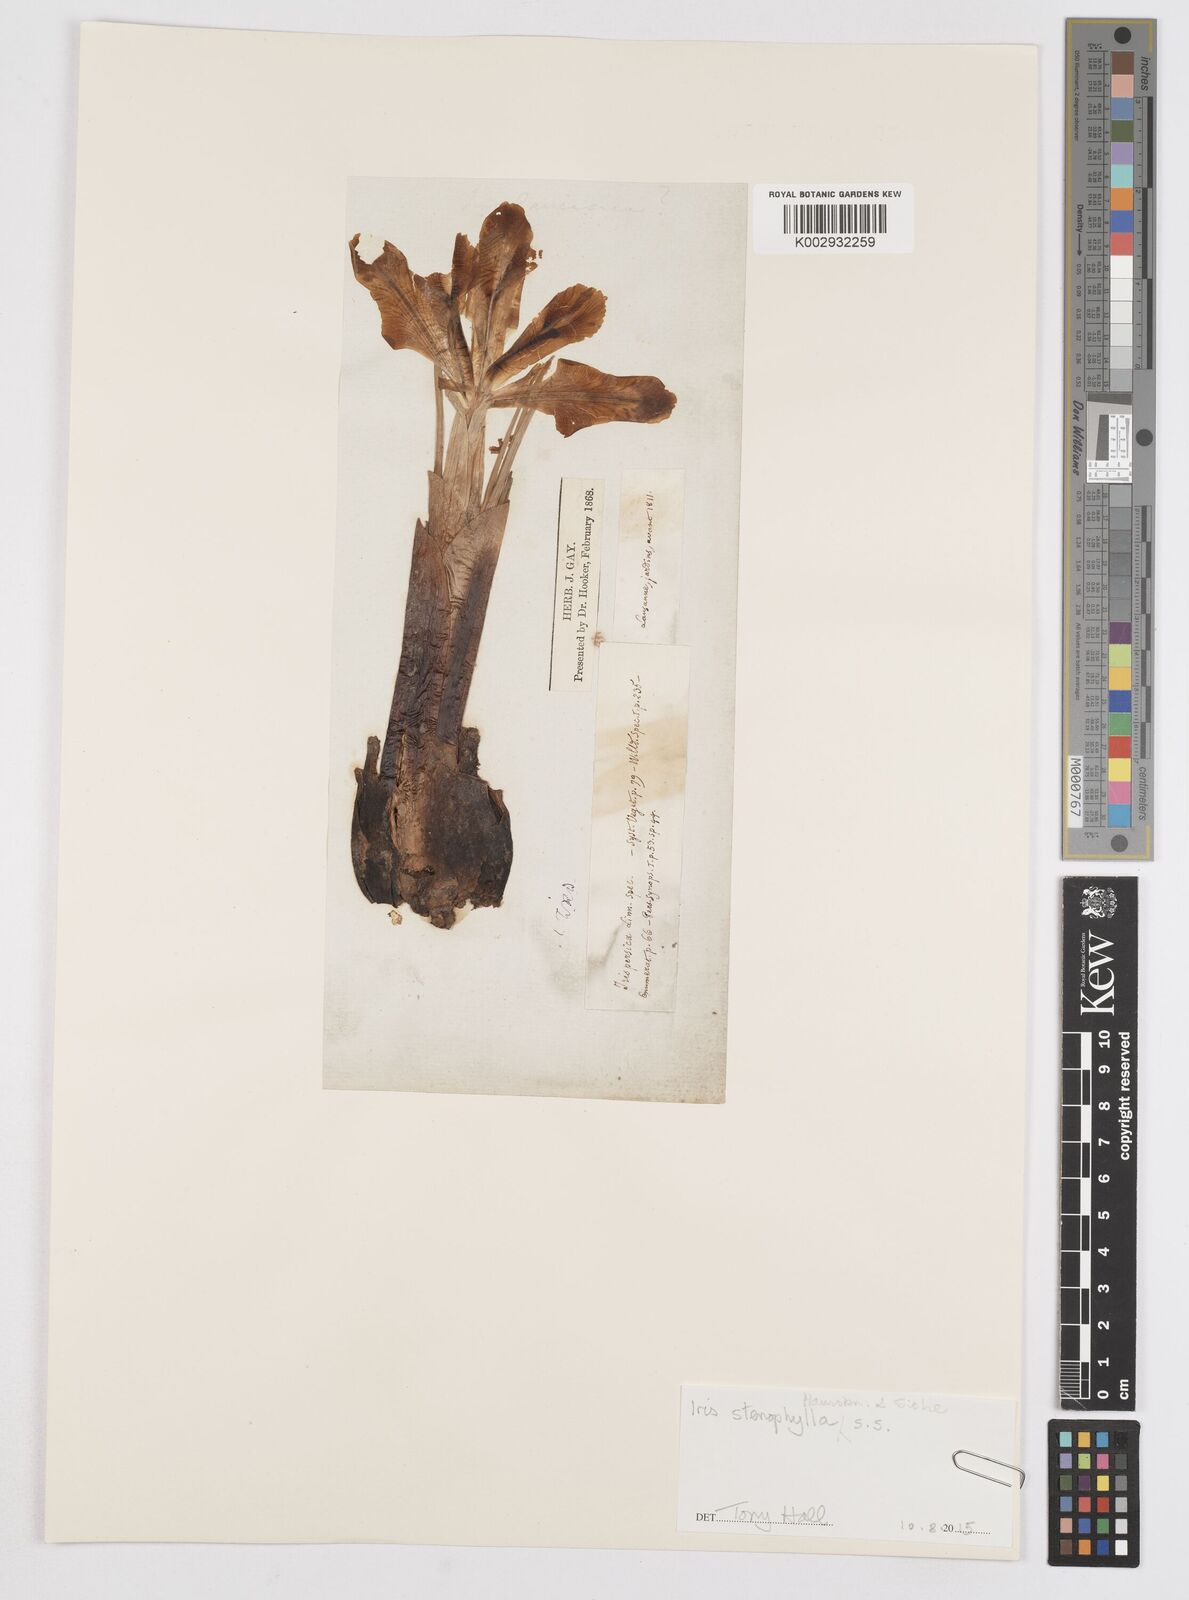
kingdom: Plantae
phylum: Tracheophyta
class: Liliopsida
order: Asparagales
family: Iridaceae
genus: Iris
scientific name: Iris
